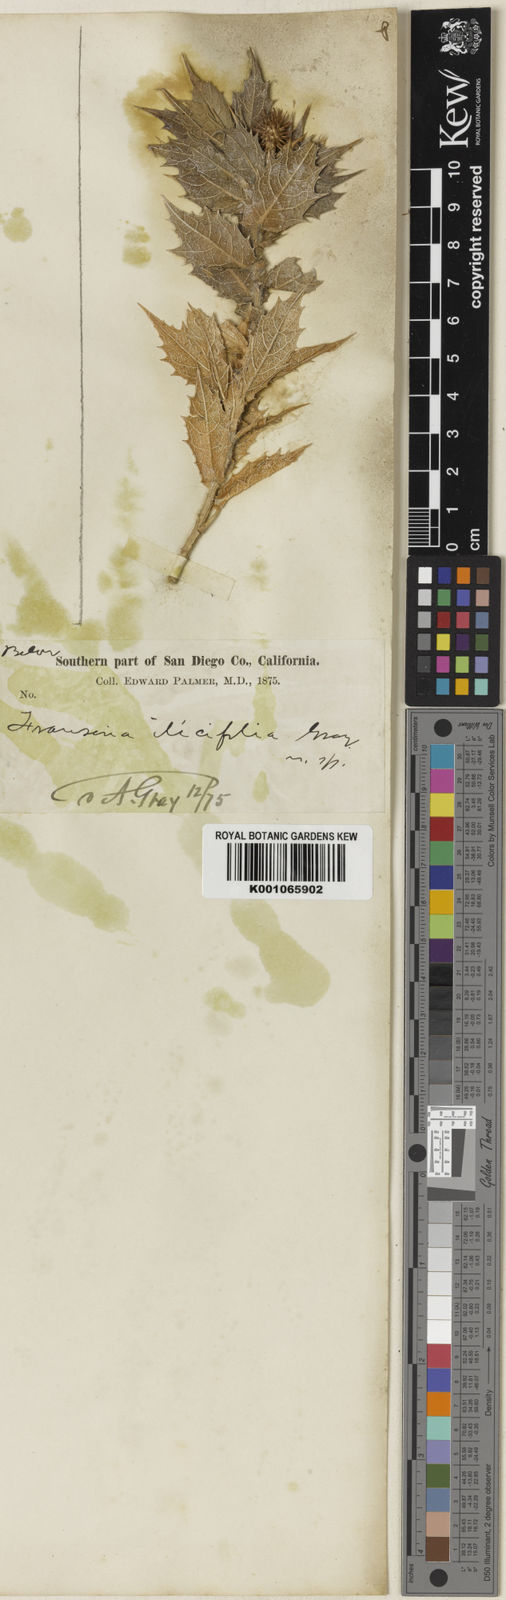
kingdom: Plantae
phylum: Tracheophyta
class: Magnoliopsida
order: Asterales
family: Asteraceae
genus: Ambrosia
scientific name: Ambrosia ilicifolia
